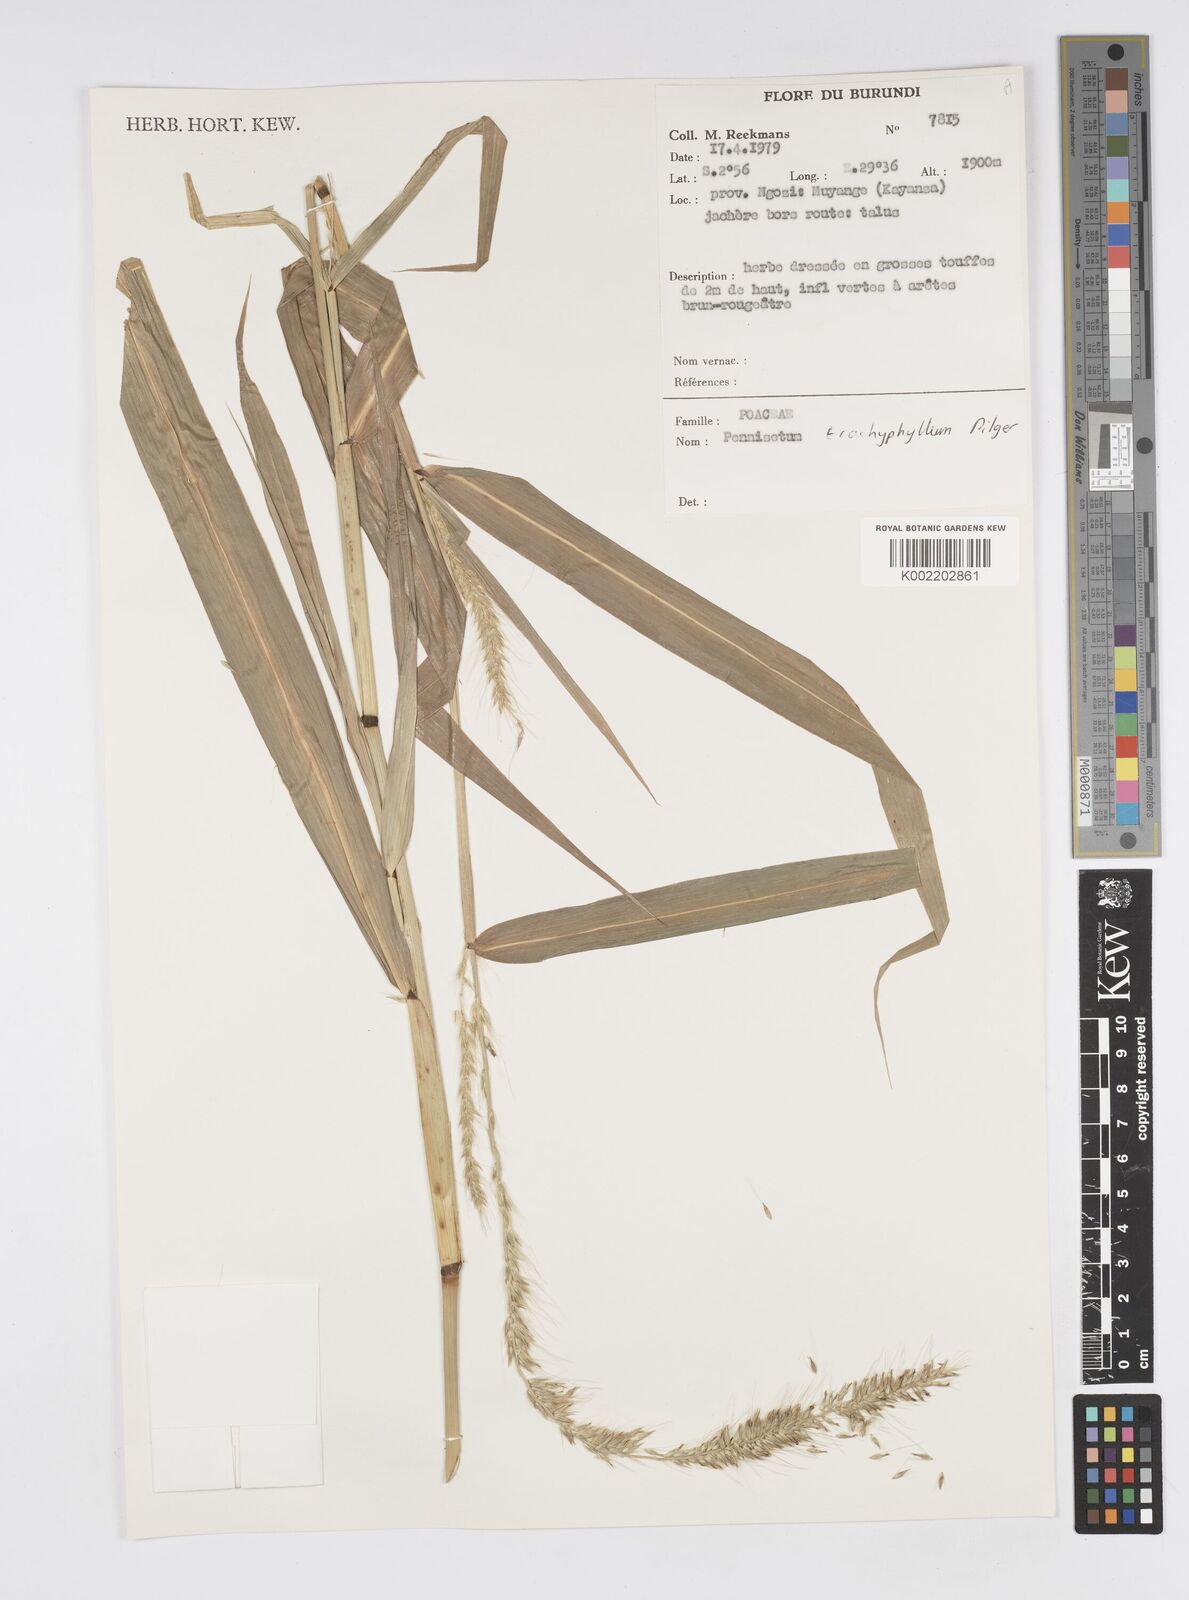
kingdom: Plantae
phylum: Tracheophyta
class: Liliopsida
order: Poales
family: Poaceae
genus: Cenchrus
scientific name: Cenchrus trachyphyllus
